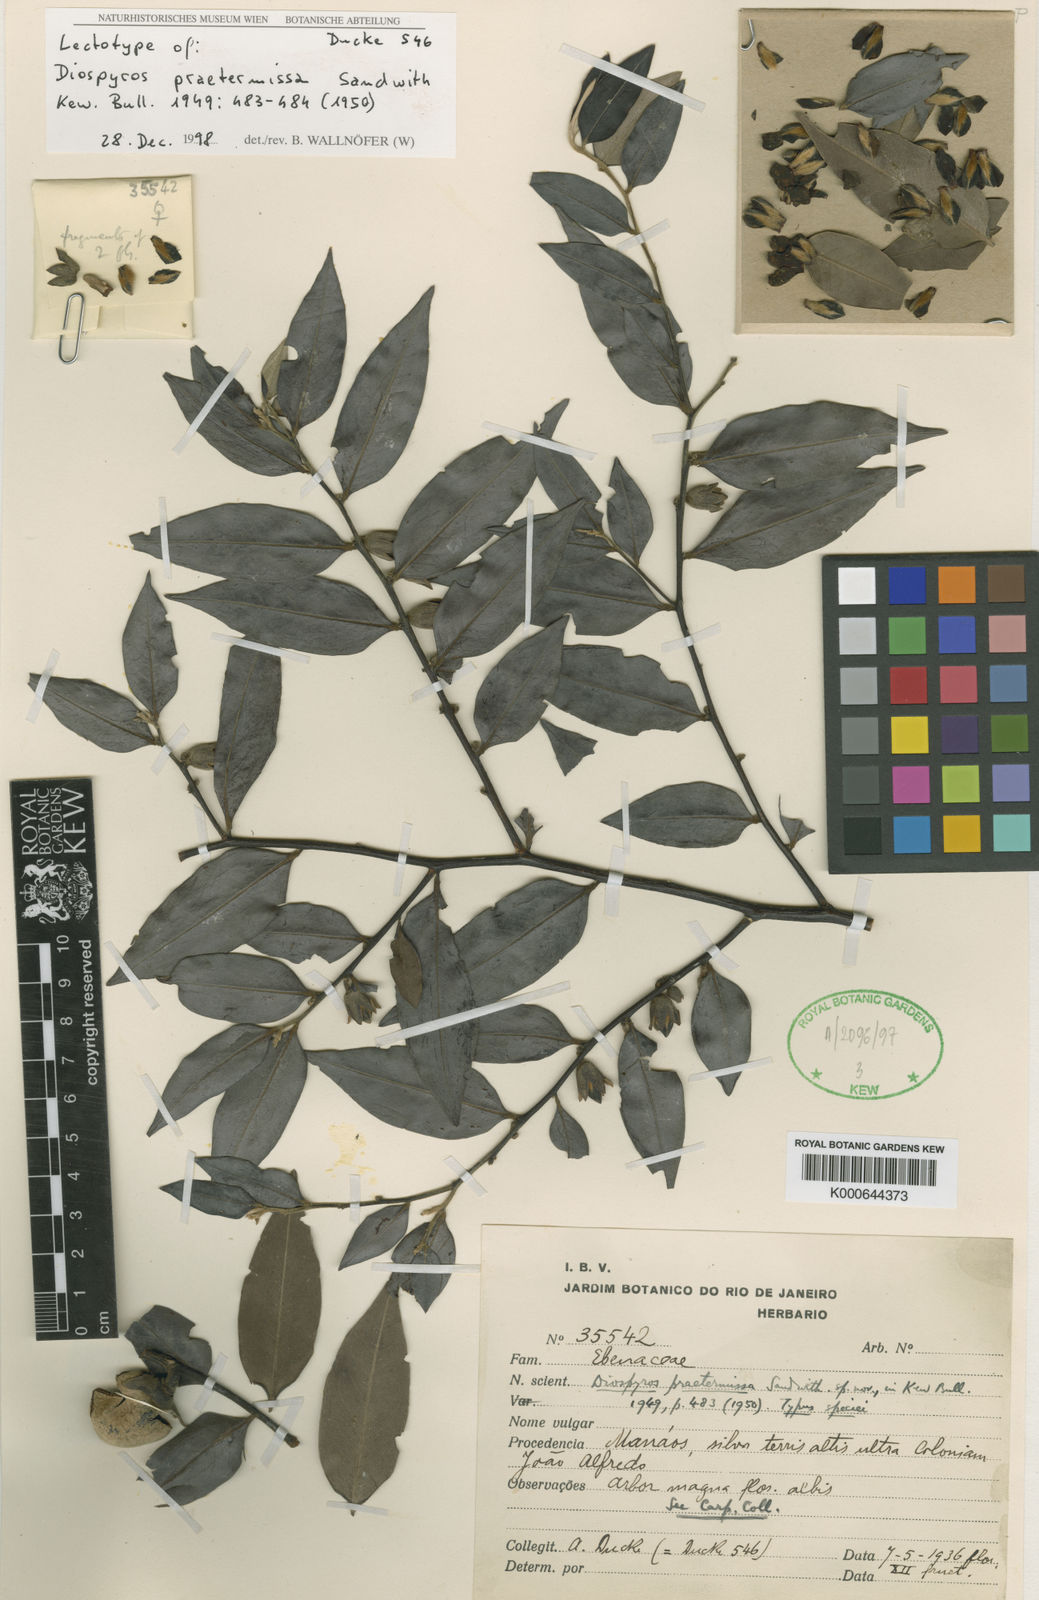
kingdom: Plantae
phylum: Tracheophyta
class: Magnoliopsida
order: Ericales
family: Ebenaceae
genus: Diospyros
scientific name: Diospyros sericea
